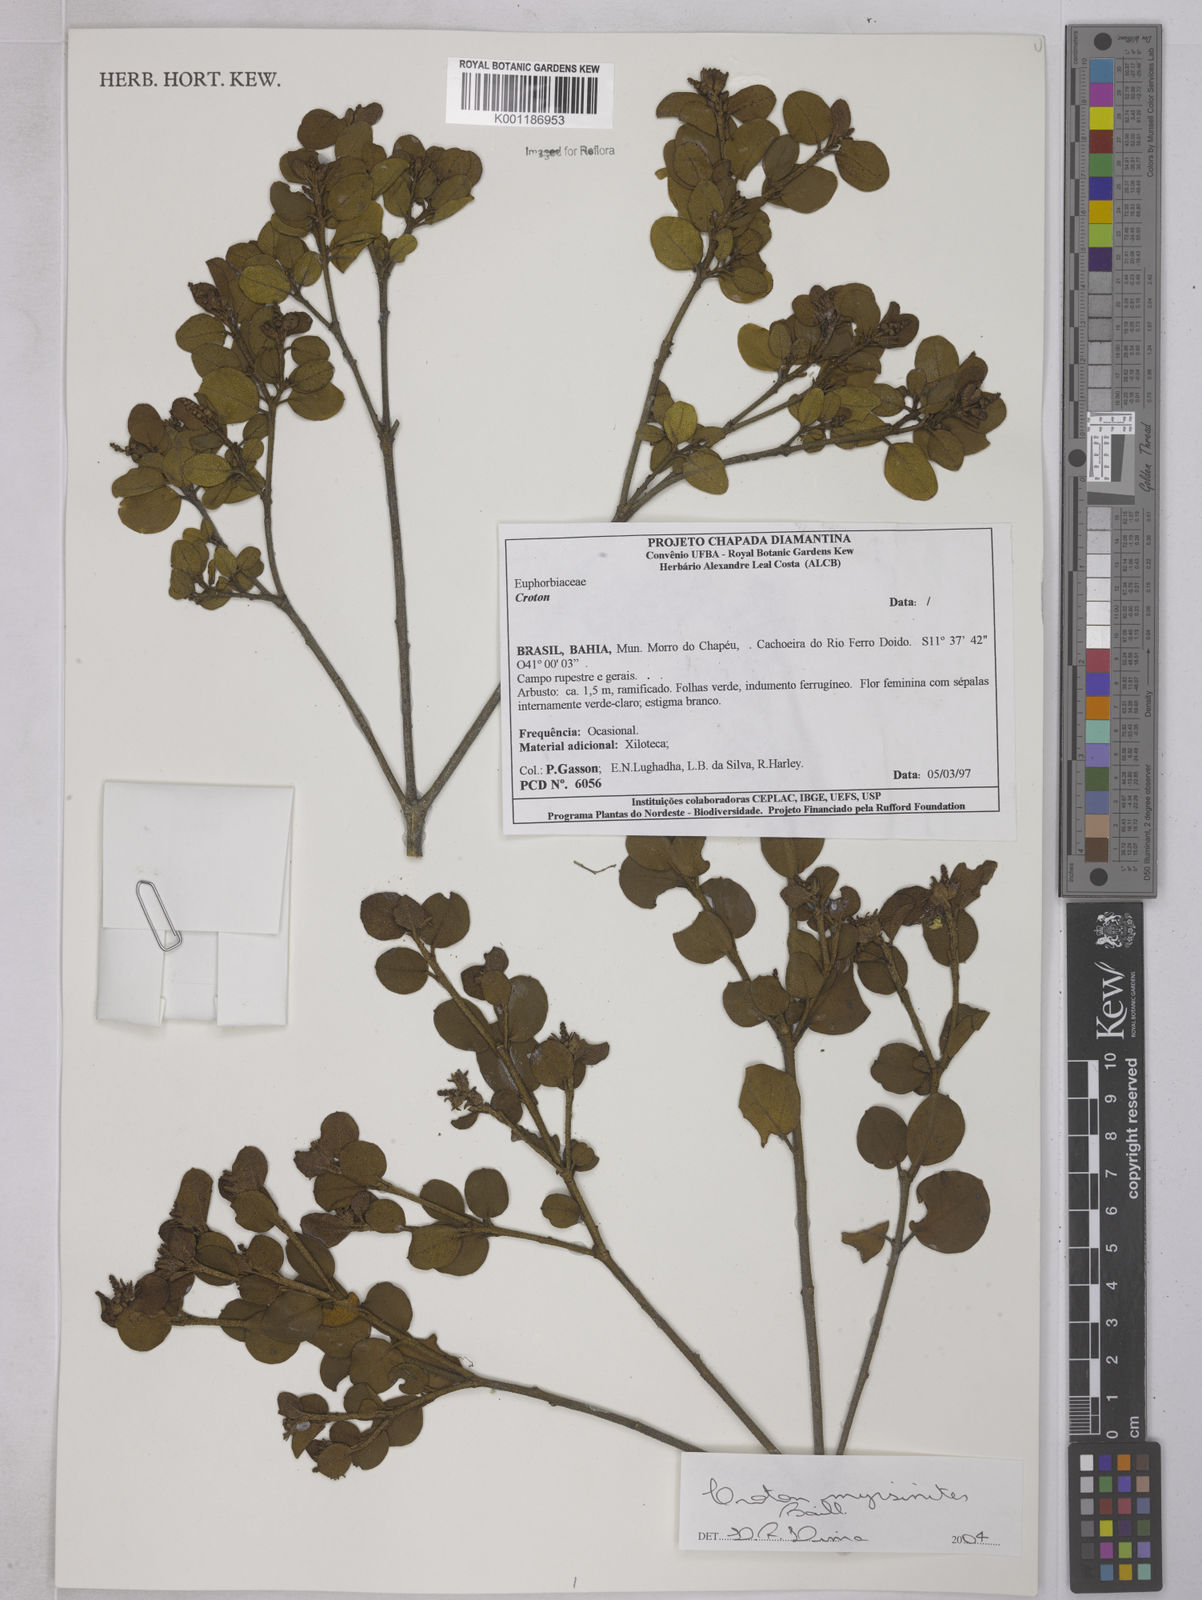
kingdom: Plantae
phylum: Tracheophyta
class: Magnoliopsida
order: Malpighiales
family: Euphorbiaceae
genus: Croton
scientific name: Croton myrsinites
